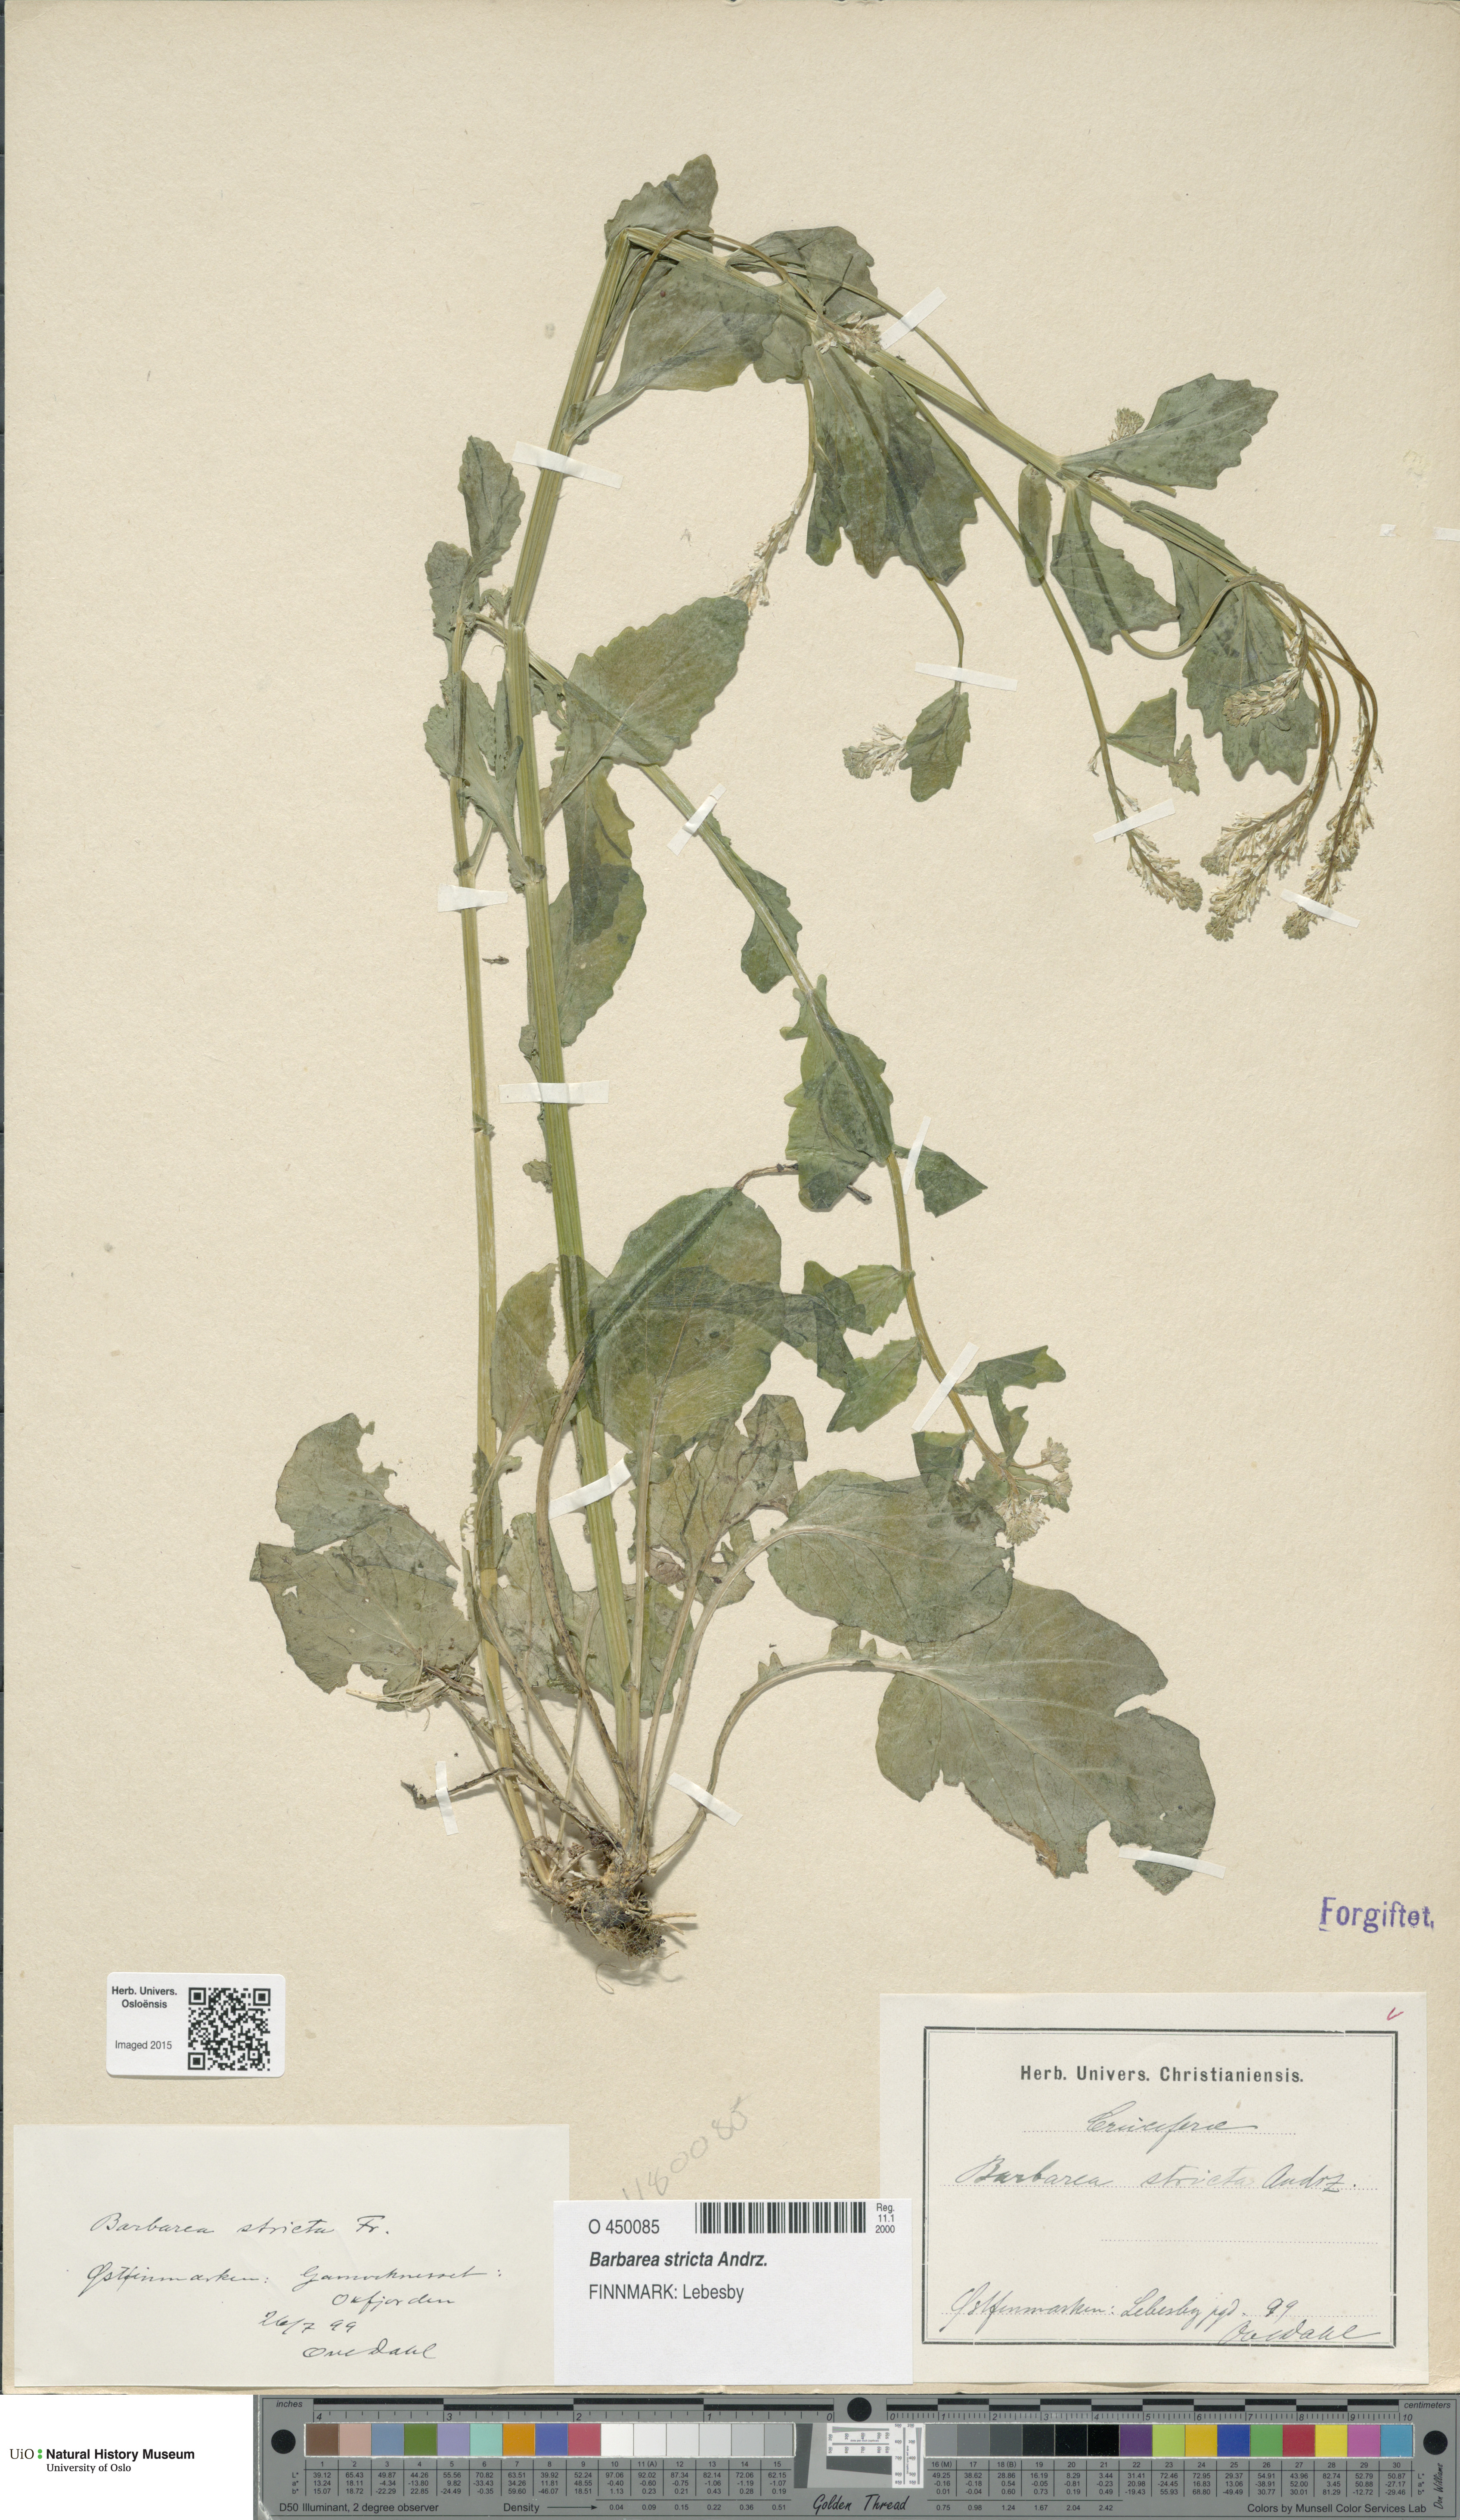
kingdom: Plantae
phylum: Tracheophyta
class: Magnoliopsida
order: Brassicales
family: Brassicaceae
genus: Barbarea
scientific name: Barbarea stricta
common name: Small-flowered winter-cress
